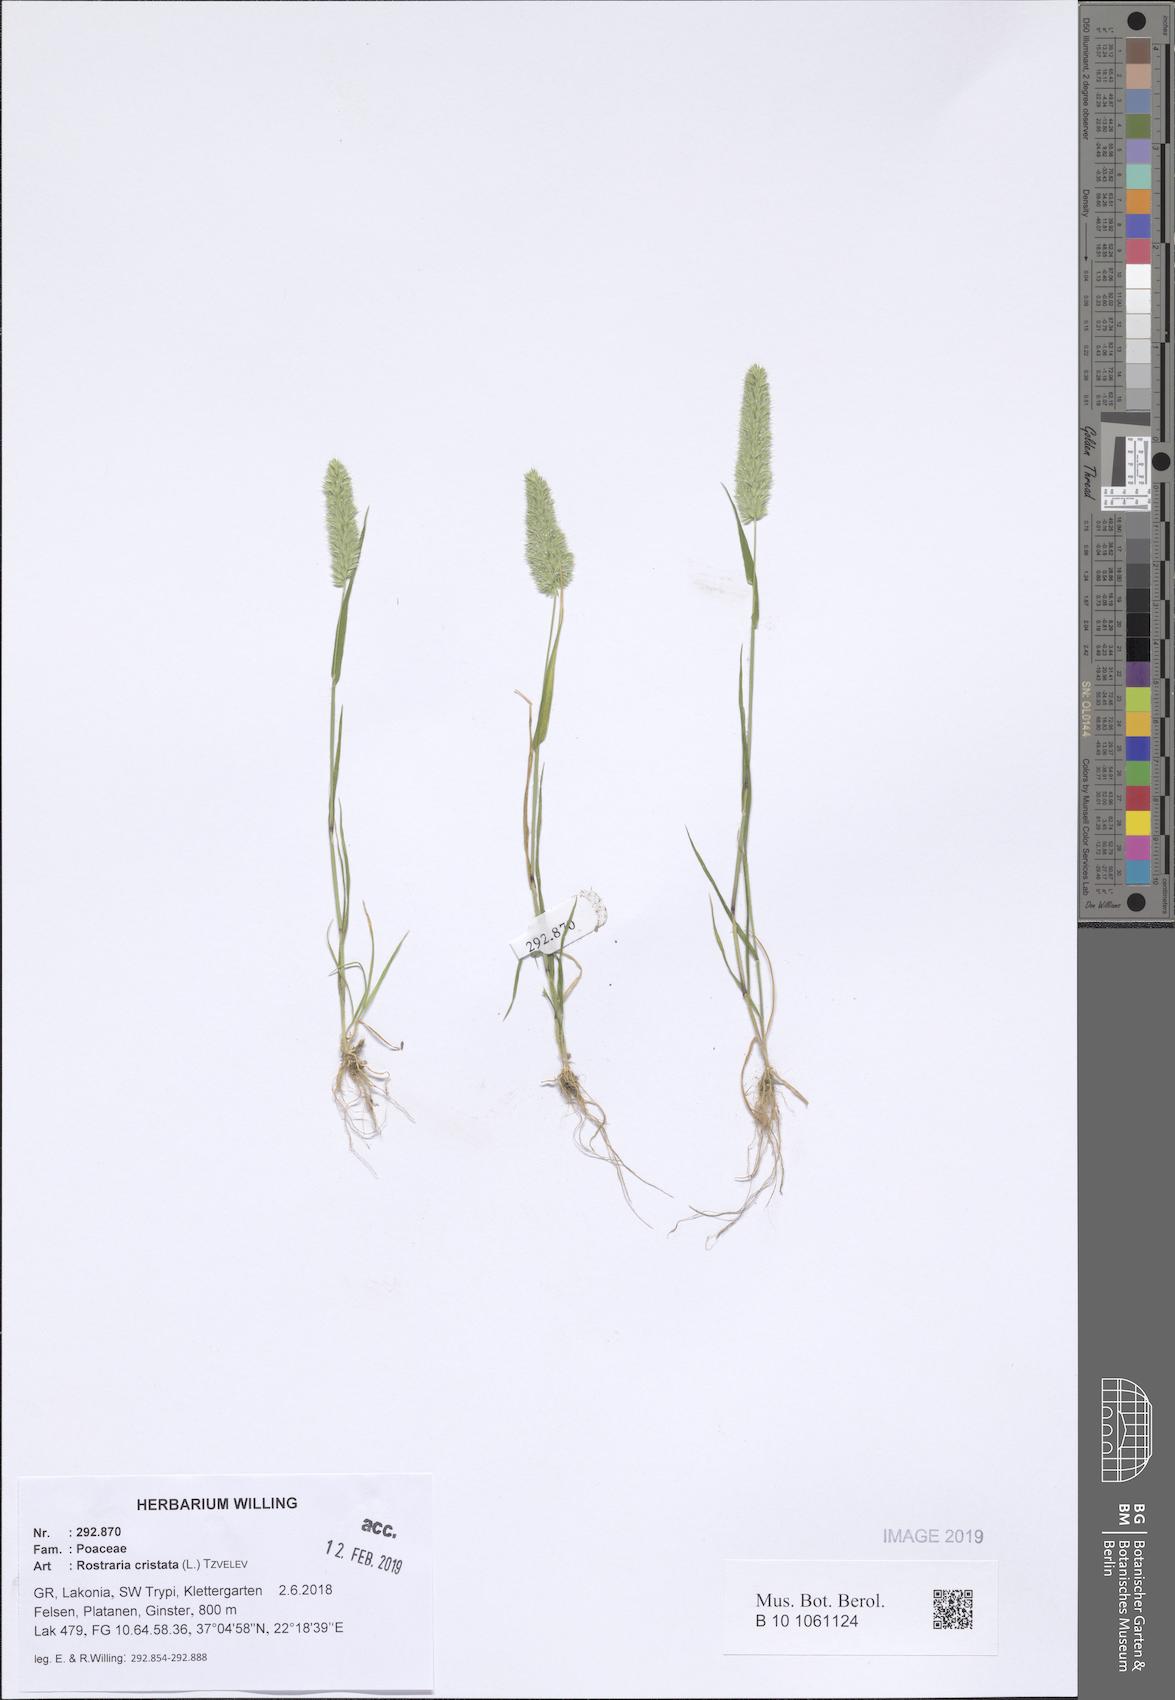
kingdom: Plantae
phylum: Tracheophyta
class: Liliopsida
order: Poales
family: Poaceae
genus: Rostraria
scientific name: Rostraria cristata
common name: Mediterranean hair-grass
